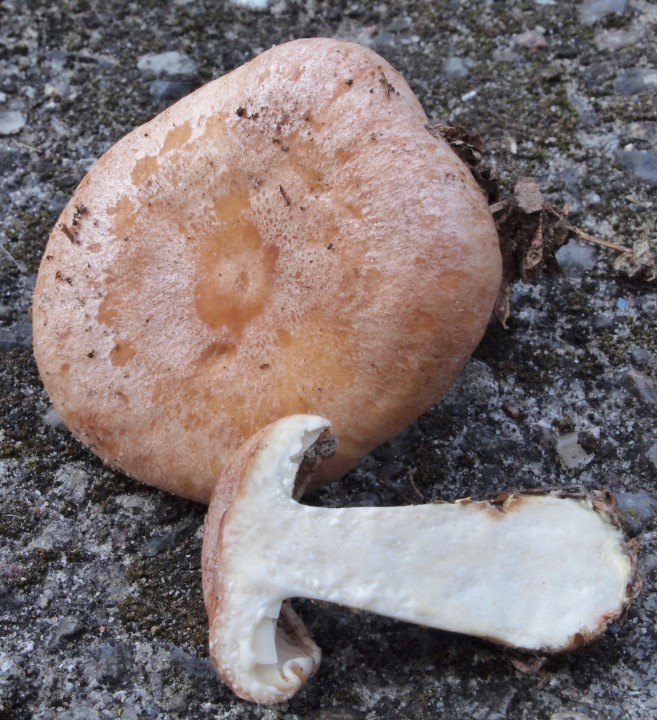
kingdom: Fungi
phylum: Basidiomycota
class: Agaricomycetes
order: Russulales
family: Russulaceae
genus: Lactarius
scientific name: Lactarius chrysorrheus
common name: svovlmælket mælkehat
